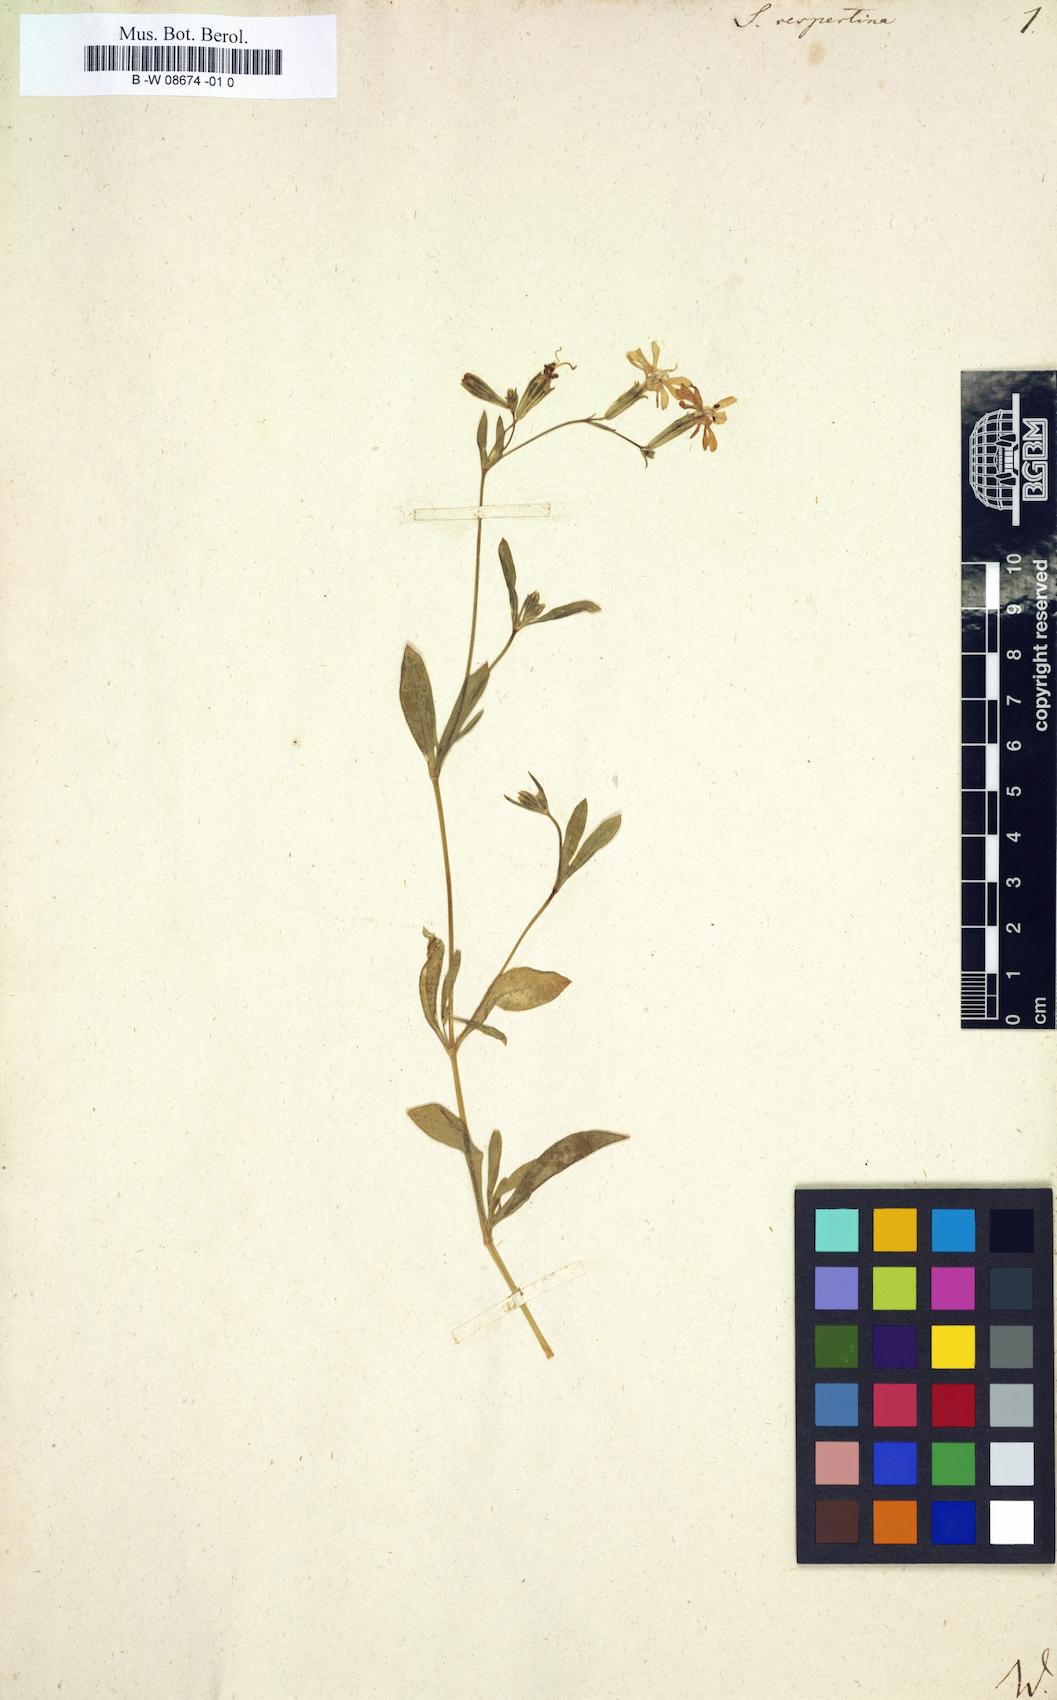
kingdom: Plantae
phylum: Tracheophyta
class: Magnoliopsida
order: Caryophyllales
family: Caryophyllaceae
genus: Silene
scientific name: Silene bellidifolia
